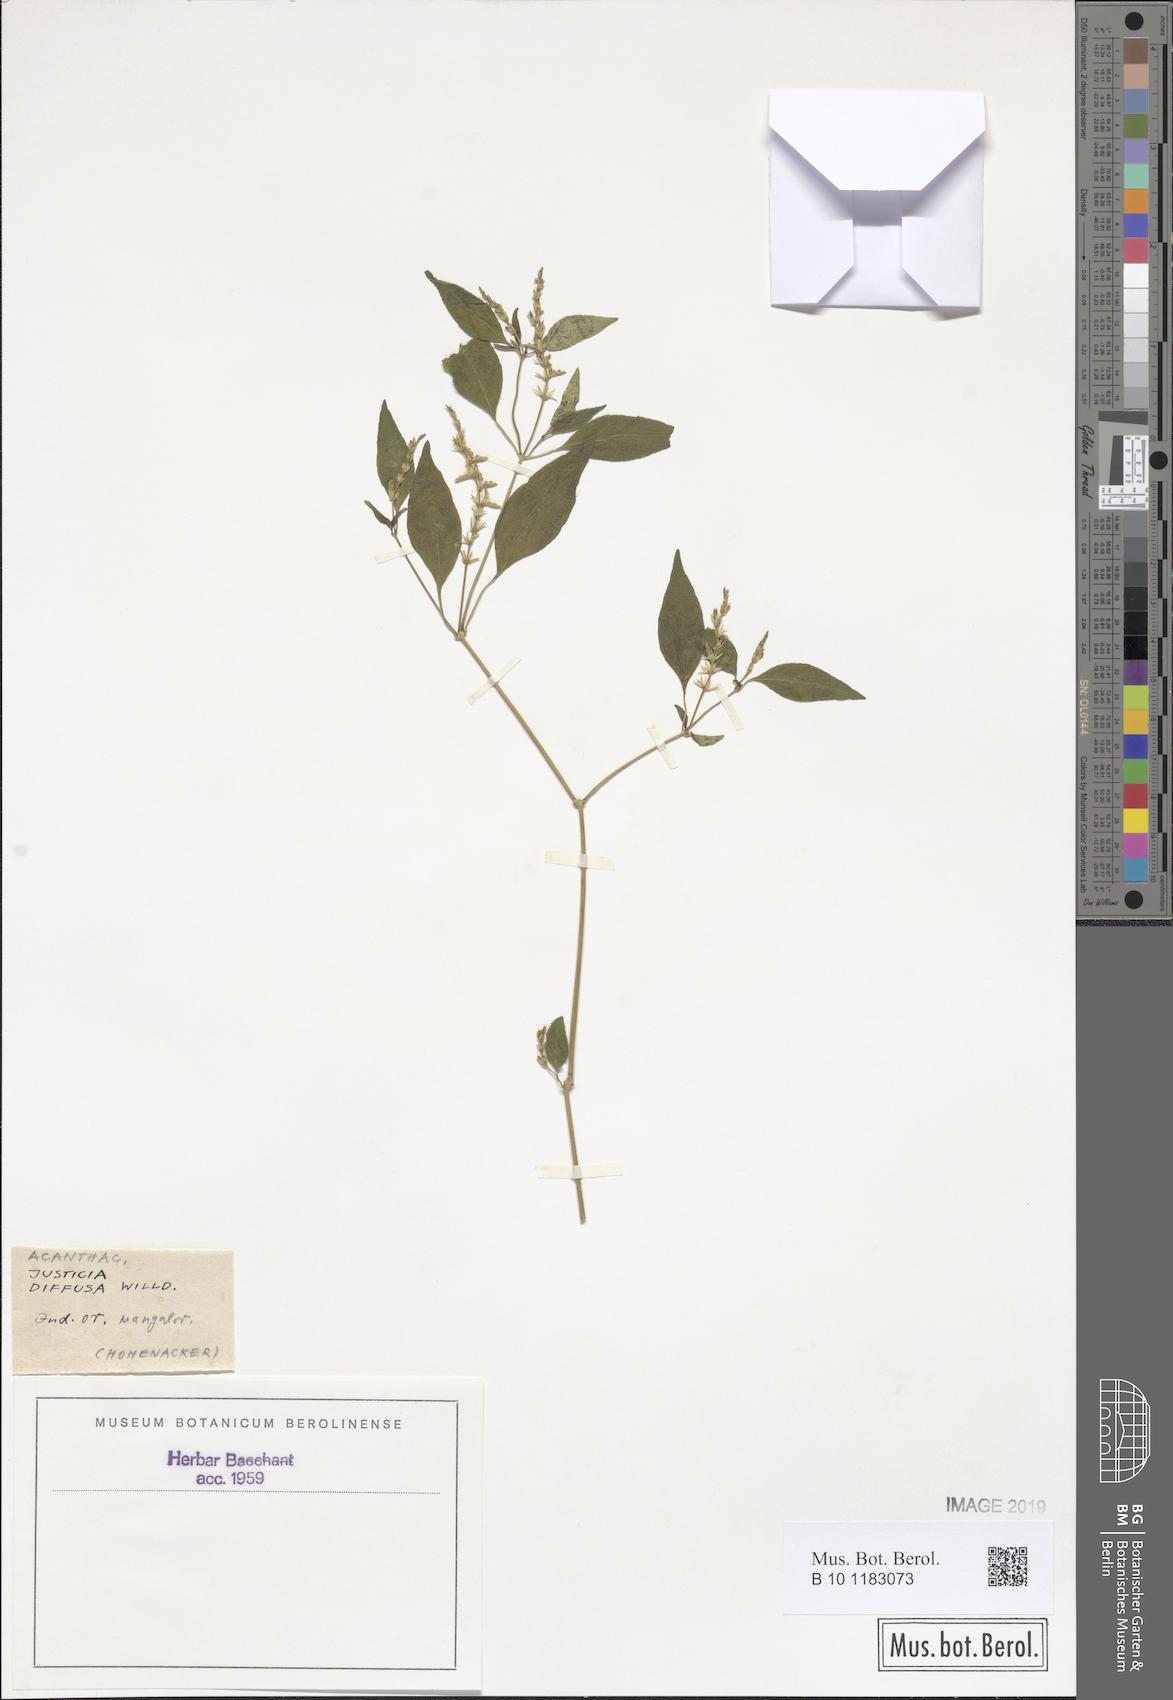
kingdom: Plantae
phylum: Tracheophyta
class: Magnoliopsida
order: Lamiales
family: Acanthaceae
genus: Rostellularia
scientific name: Rostellularia diffusa
